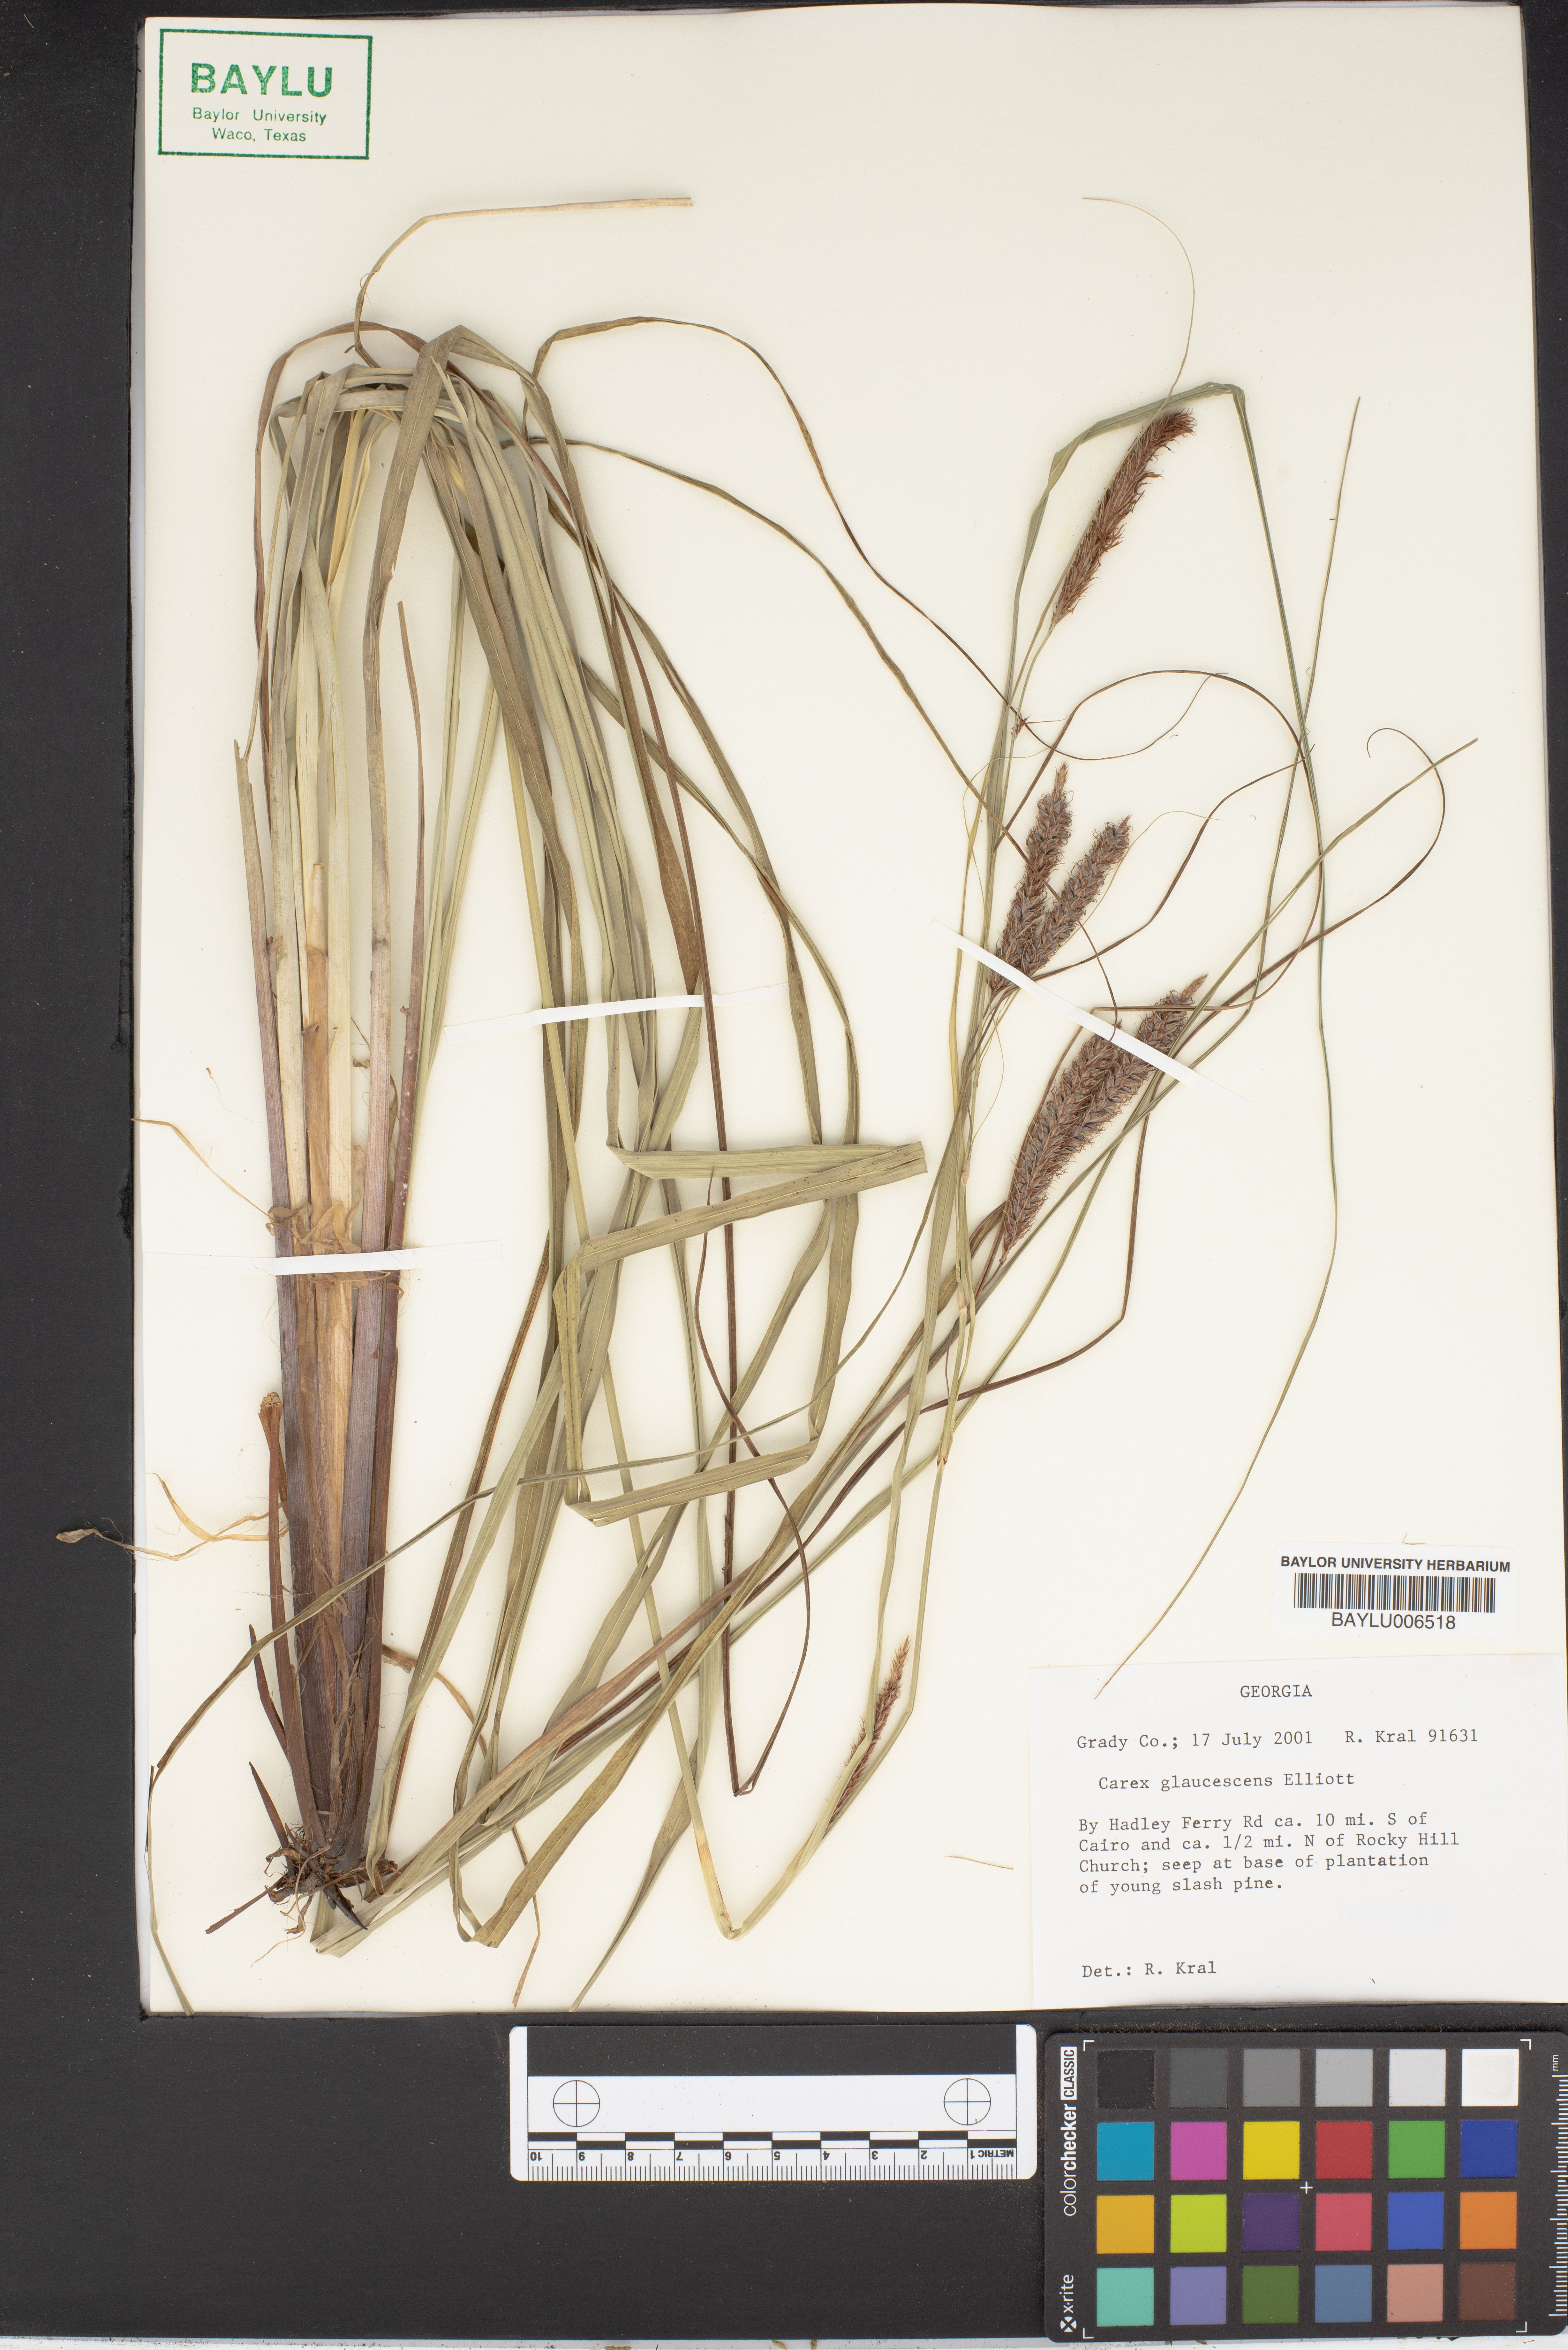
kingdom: Plantae
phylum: Tracheophyta
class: Liliopsida
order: Poales
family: Cyperaceae
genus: Carex
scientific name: Carex glaucescens
